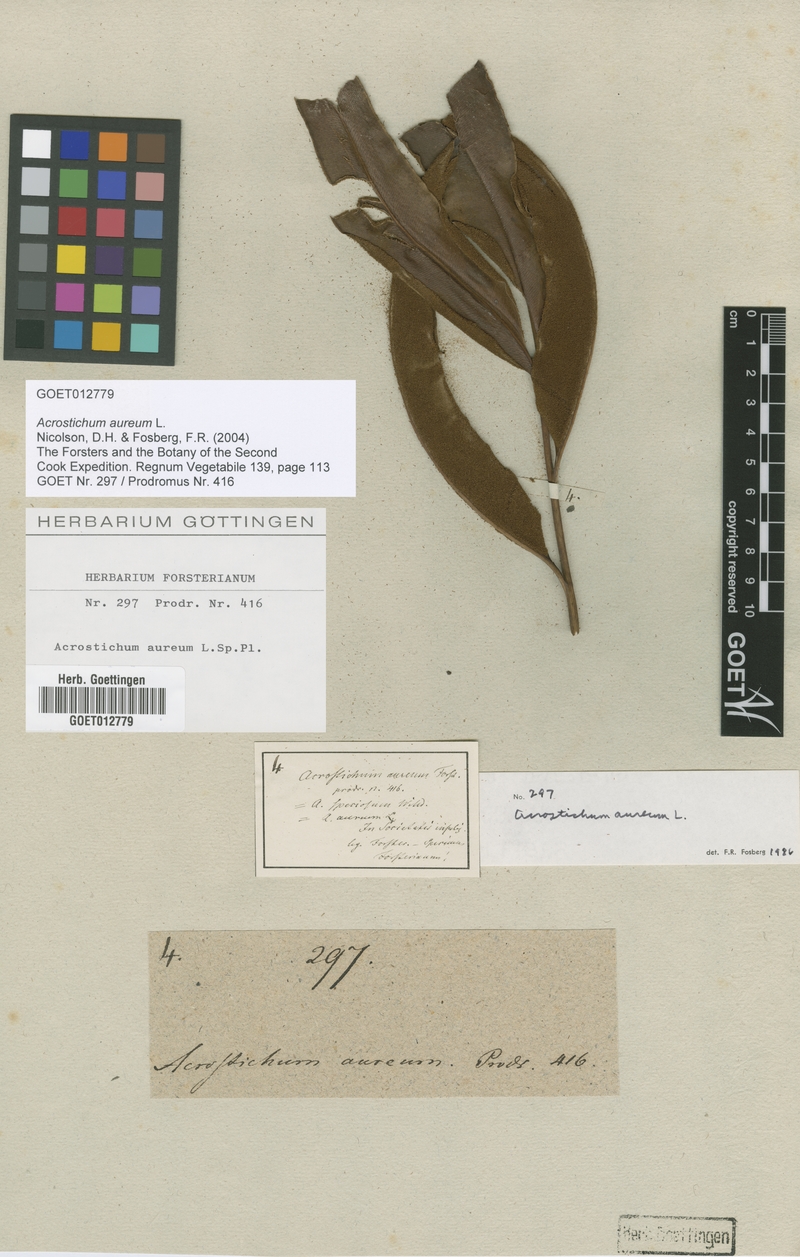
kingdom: Plantae
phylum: Tracheophyta
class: Polypodiopsida
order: Polypodiales
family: Pteridaceae
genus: Acrostichum
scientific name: Acrostichum aureum
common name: Leather fern
